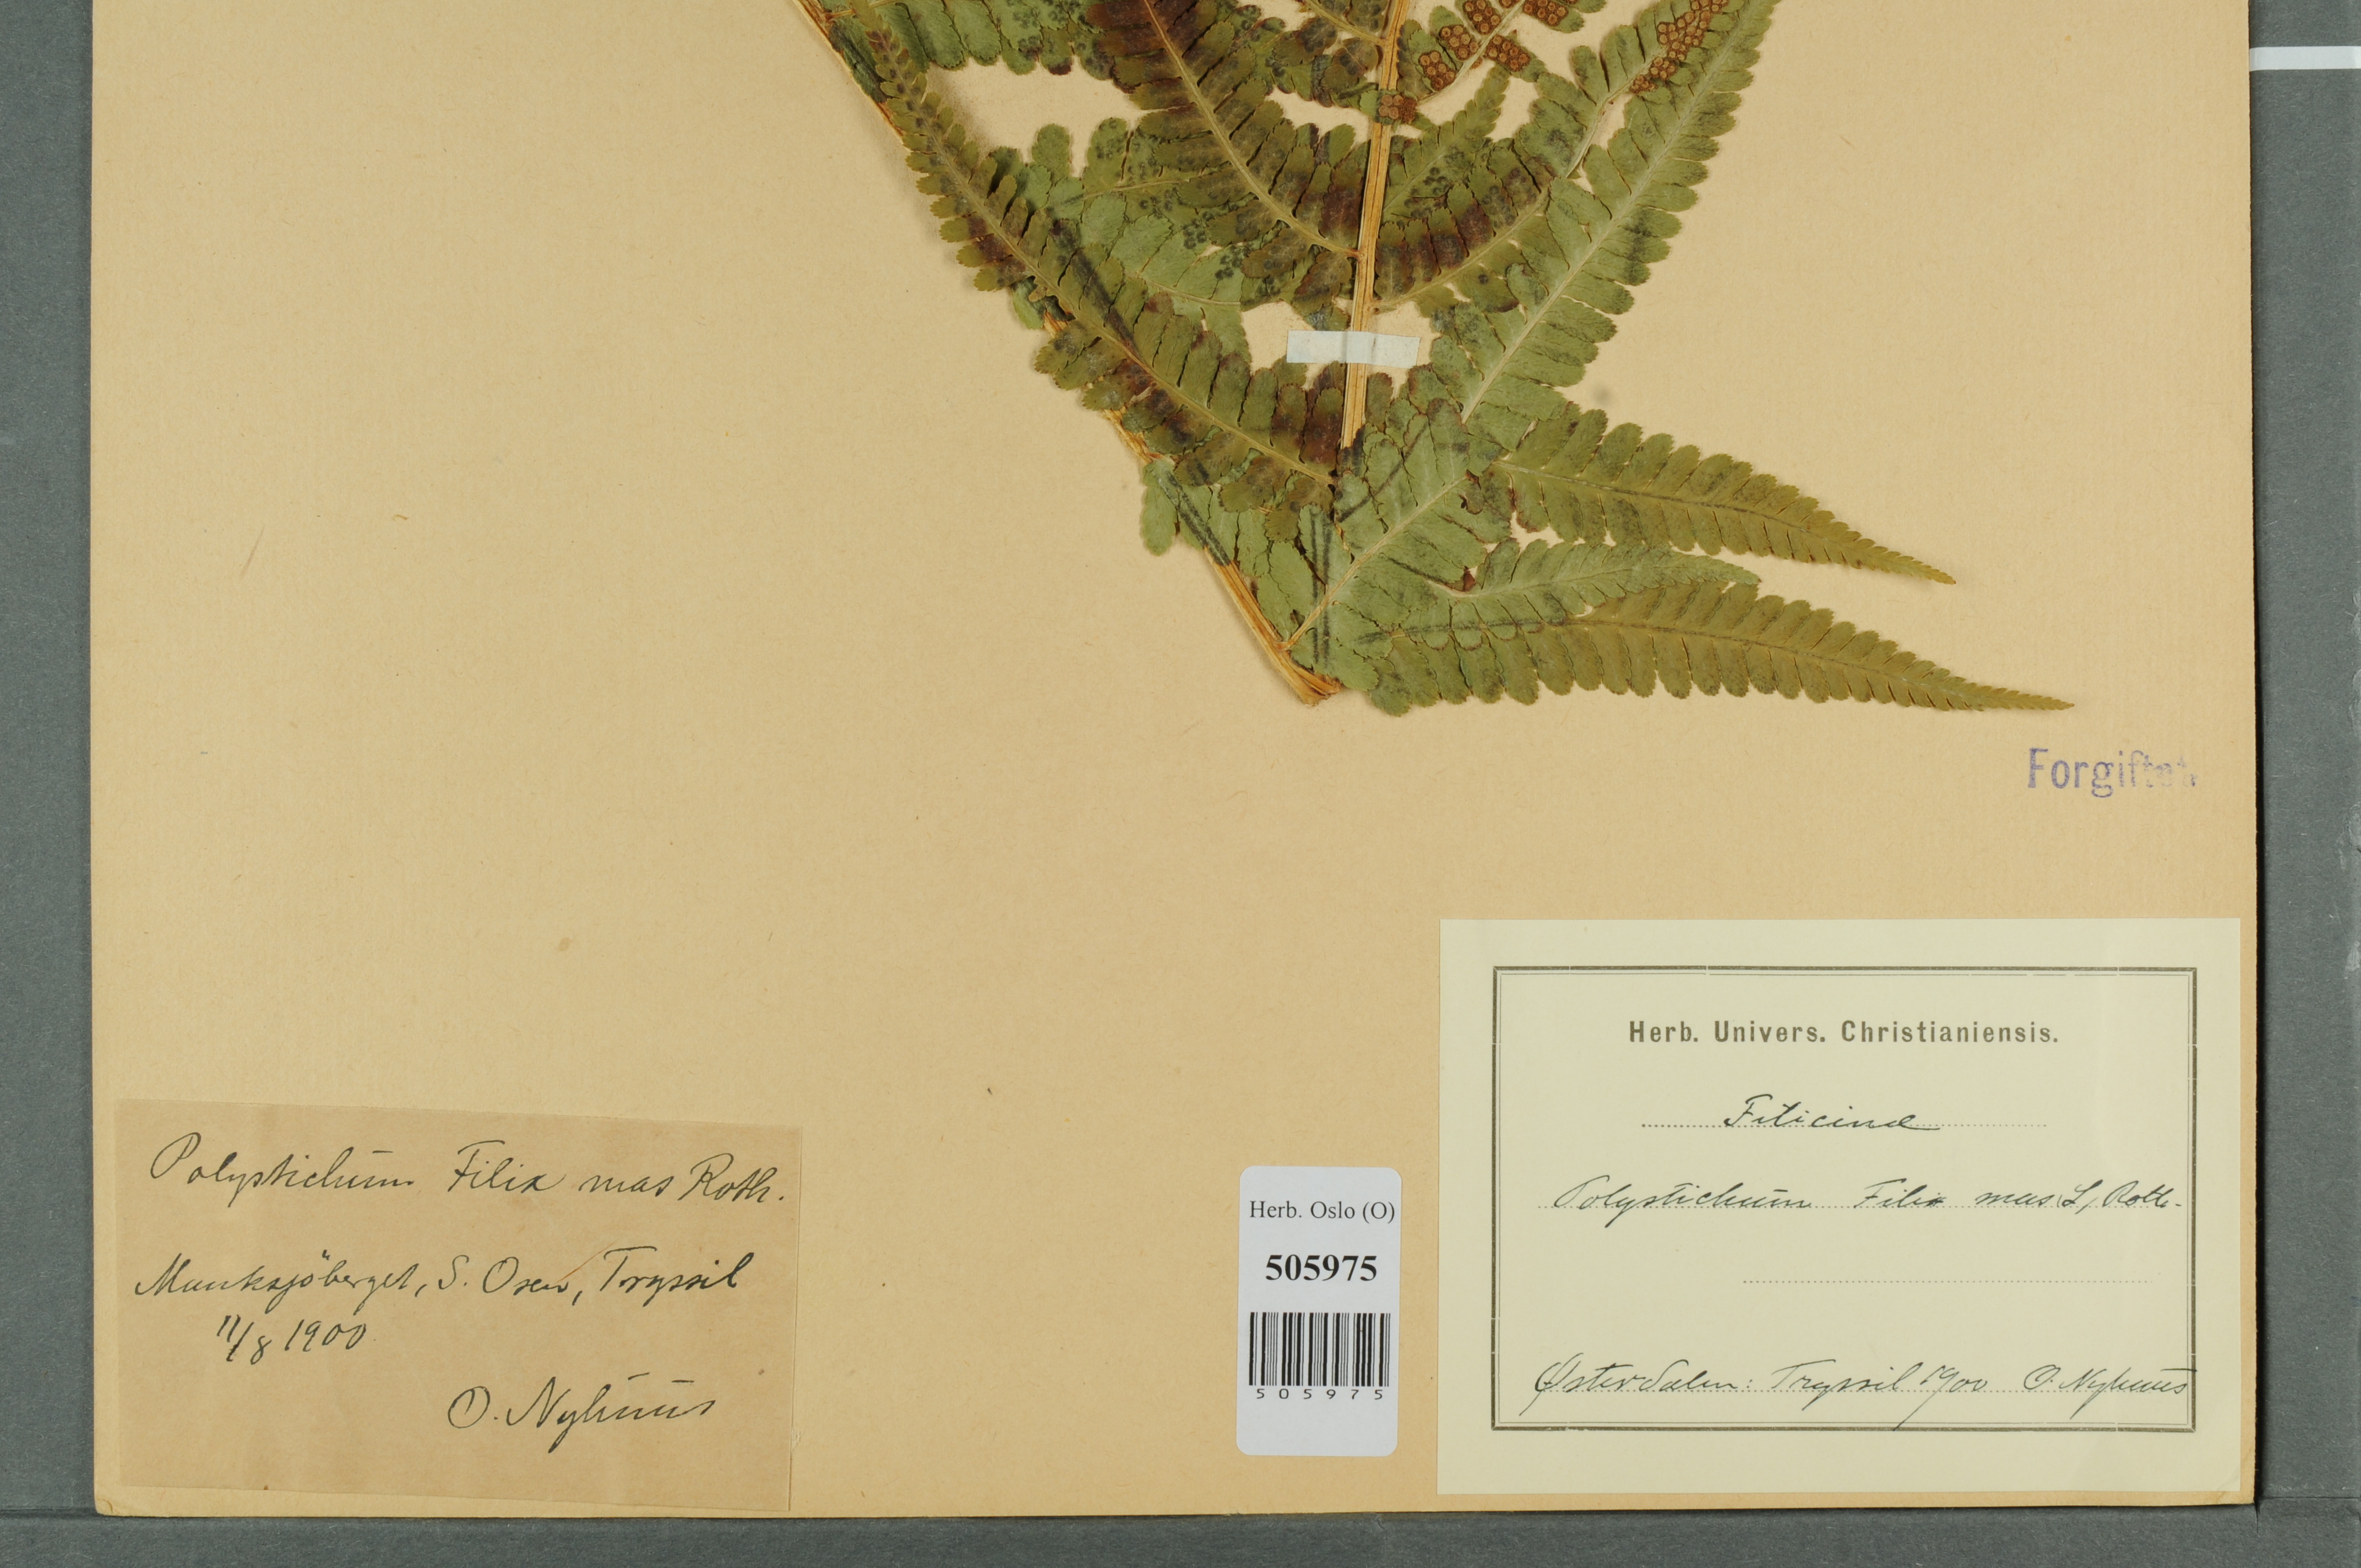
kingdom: Plantae
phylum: Tracheophyta
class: Polypodiopsida
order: Polypodiales
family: Dryopteridaceae
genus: Dryopteris
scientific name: Dryopteris filix-mas
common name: Male fern
